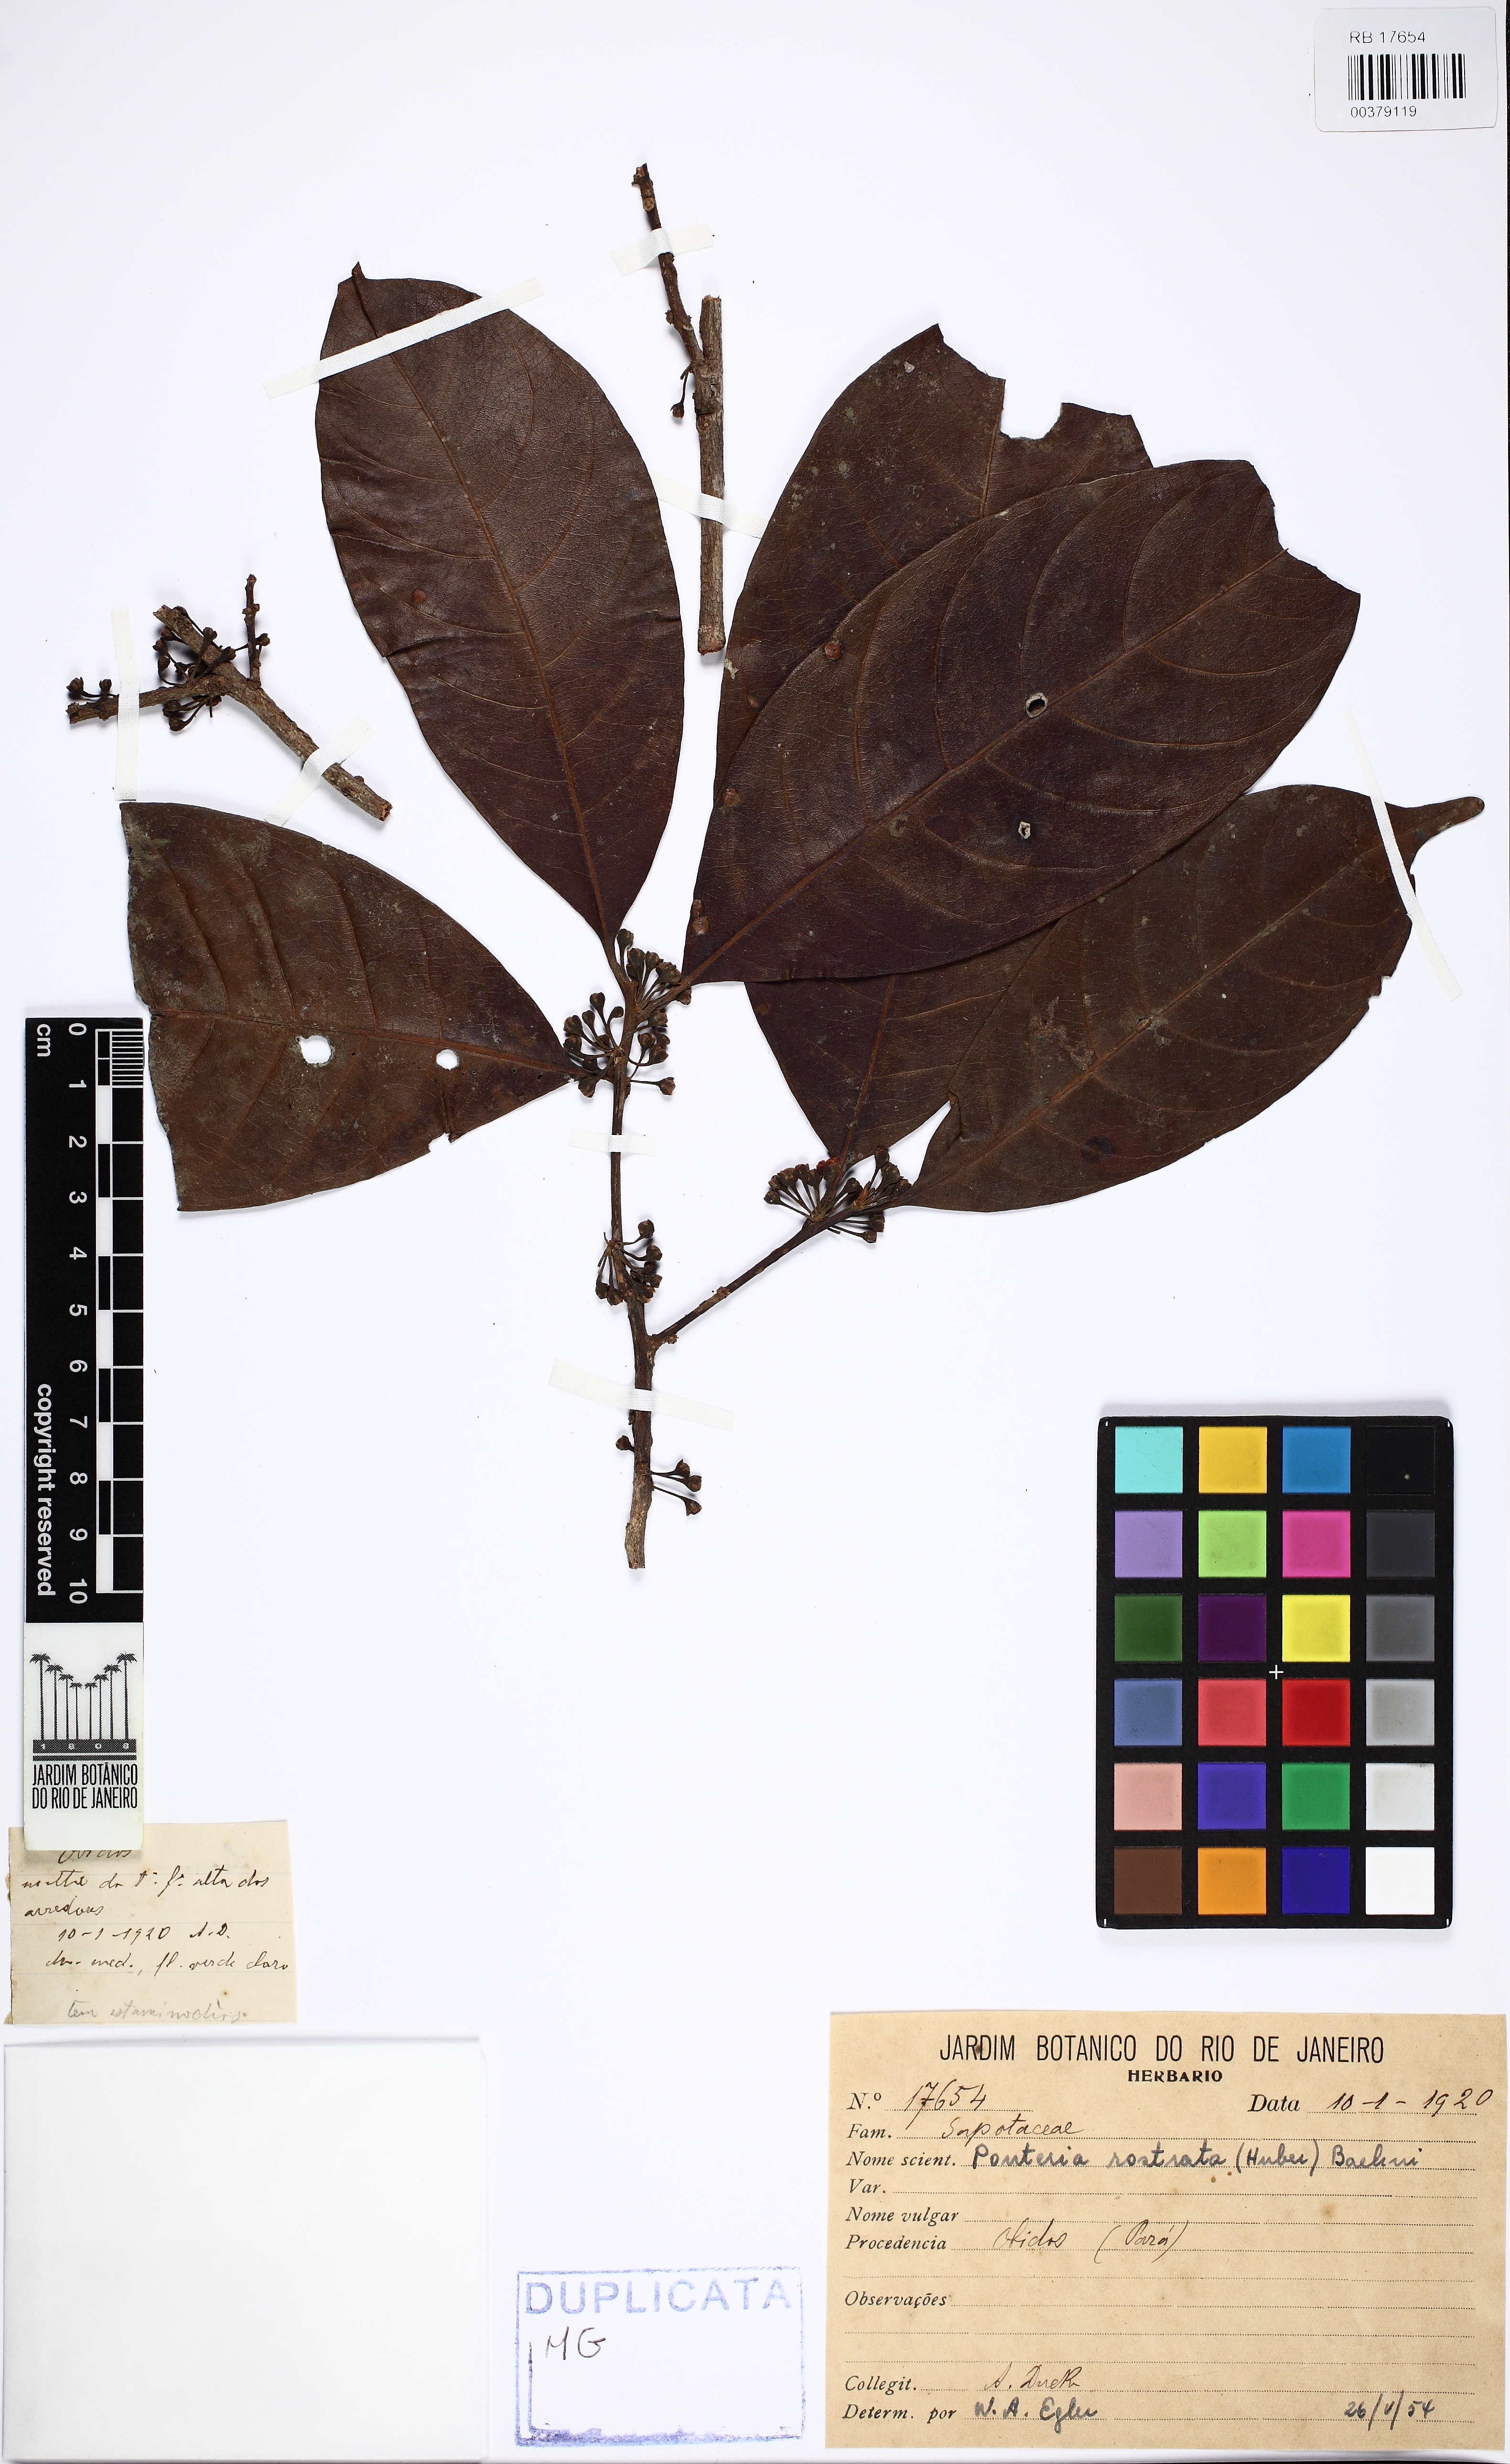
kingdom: Plantae
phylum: Tracheophyta
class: Magnoliopsida
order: Ericales
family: Sapotaceae
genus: Pouteria
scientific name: Pouteria rostrata
